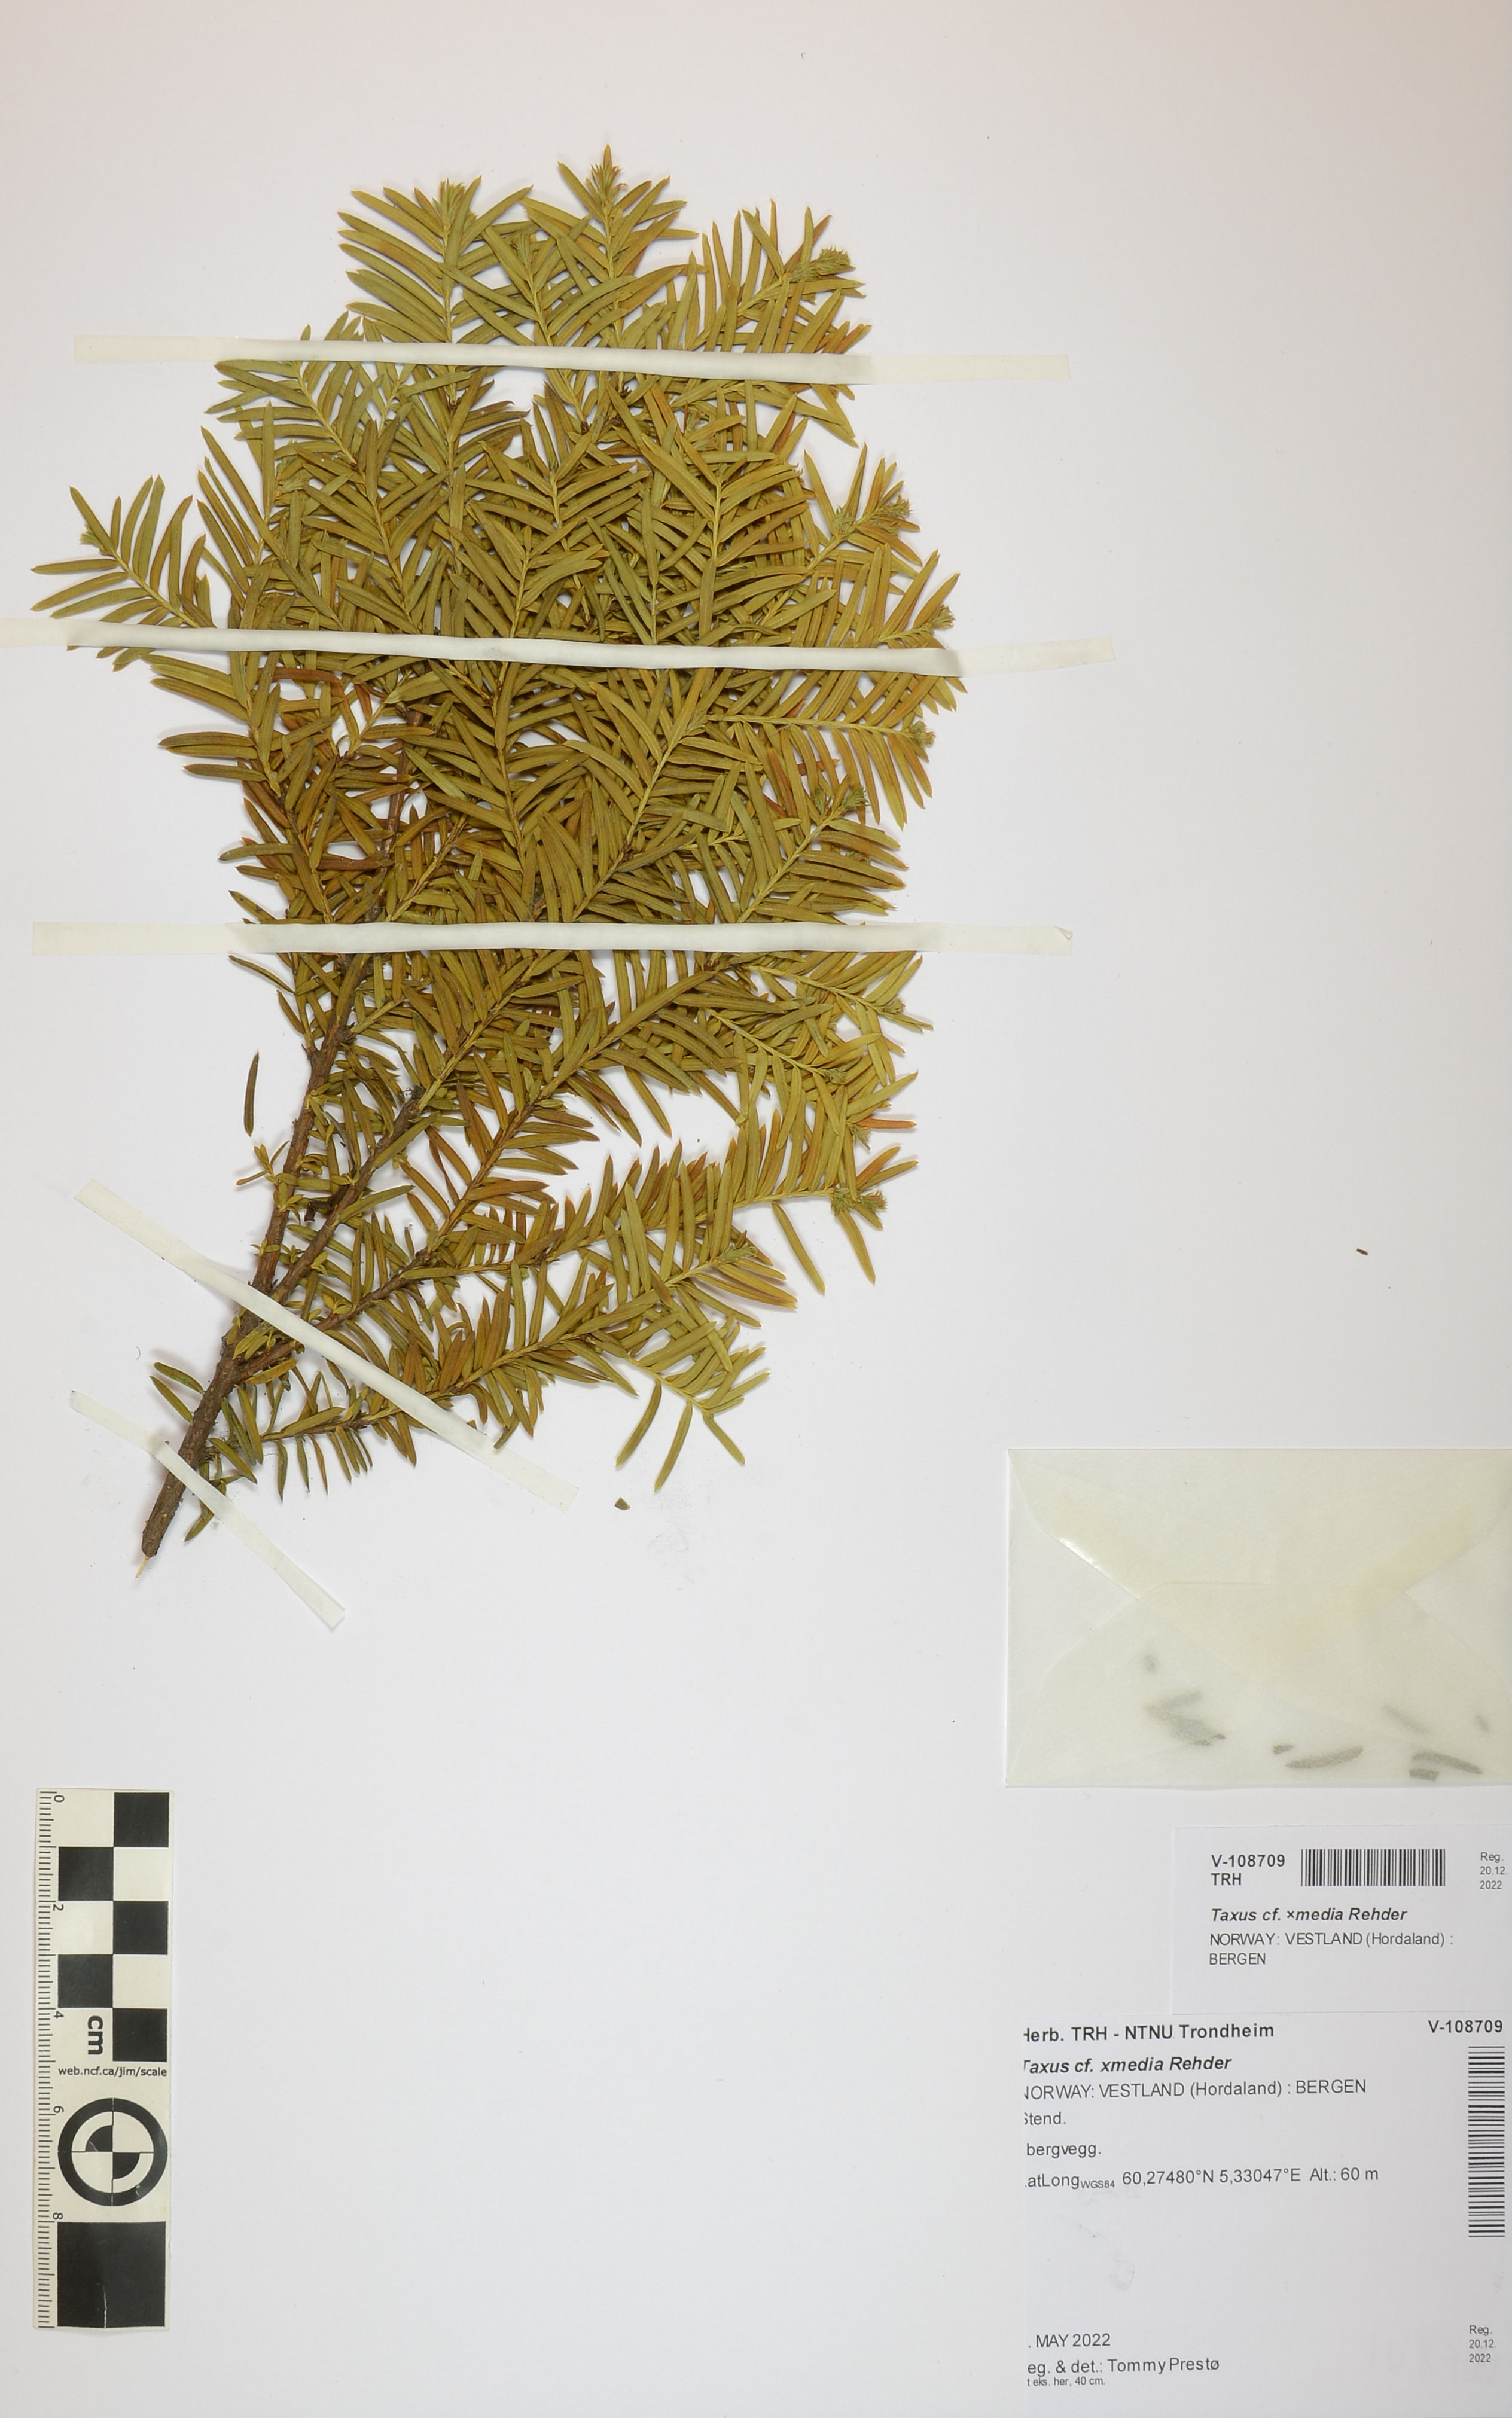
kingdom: Plantae
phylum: Tracheophyta
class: Pinopsida
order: Pinales
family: Taxaceae
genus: Taxus
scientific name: Taxus media
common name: Hybrid yew
